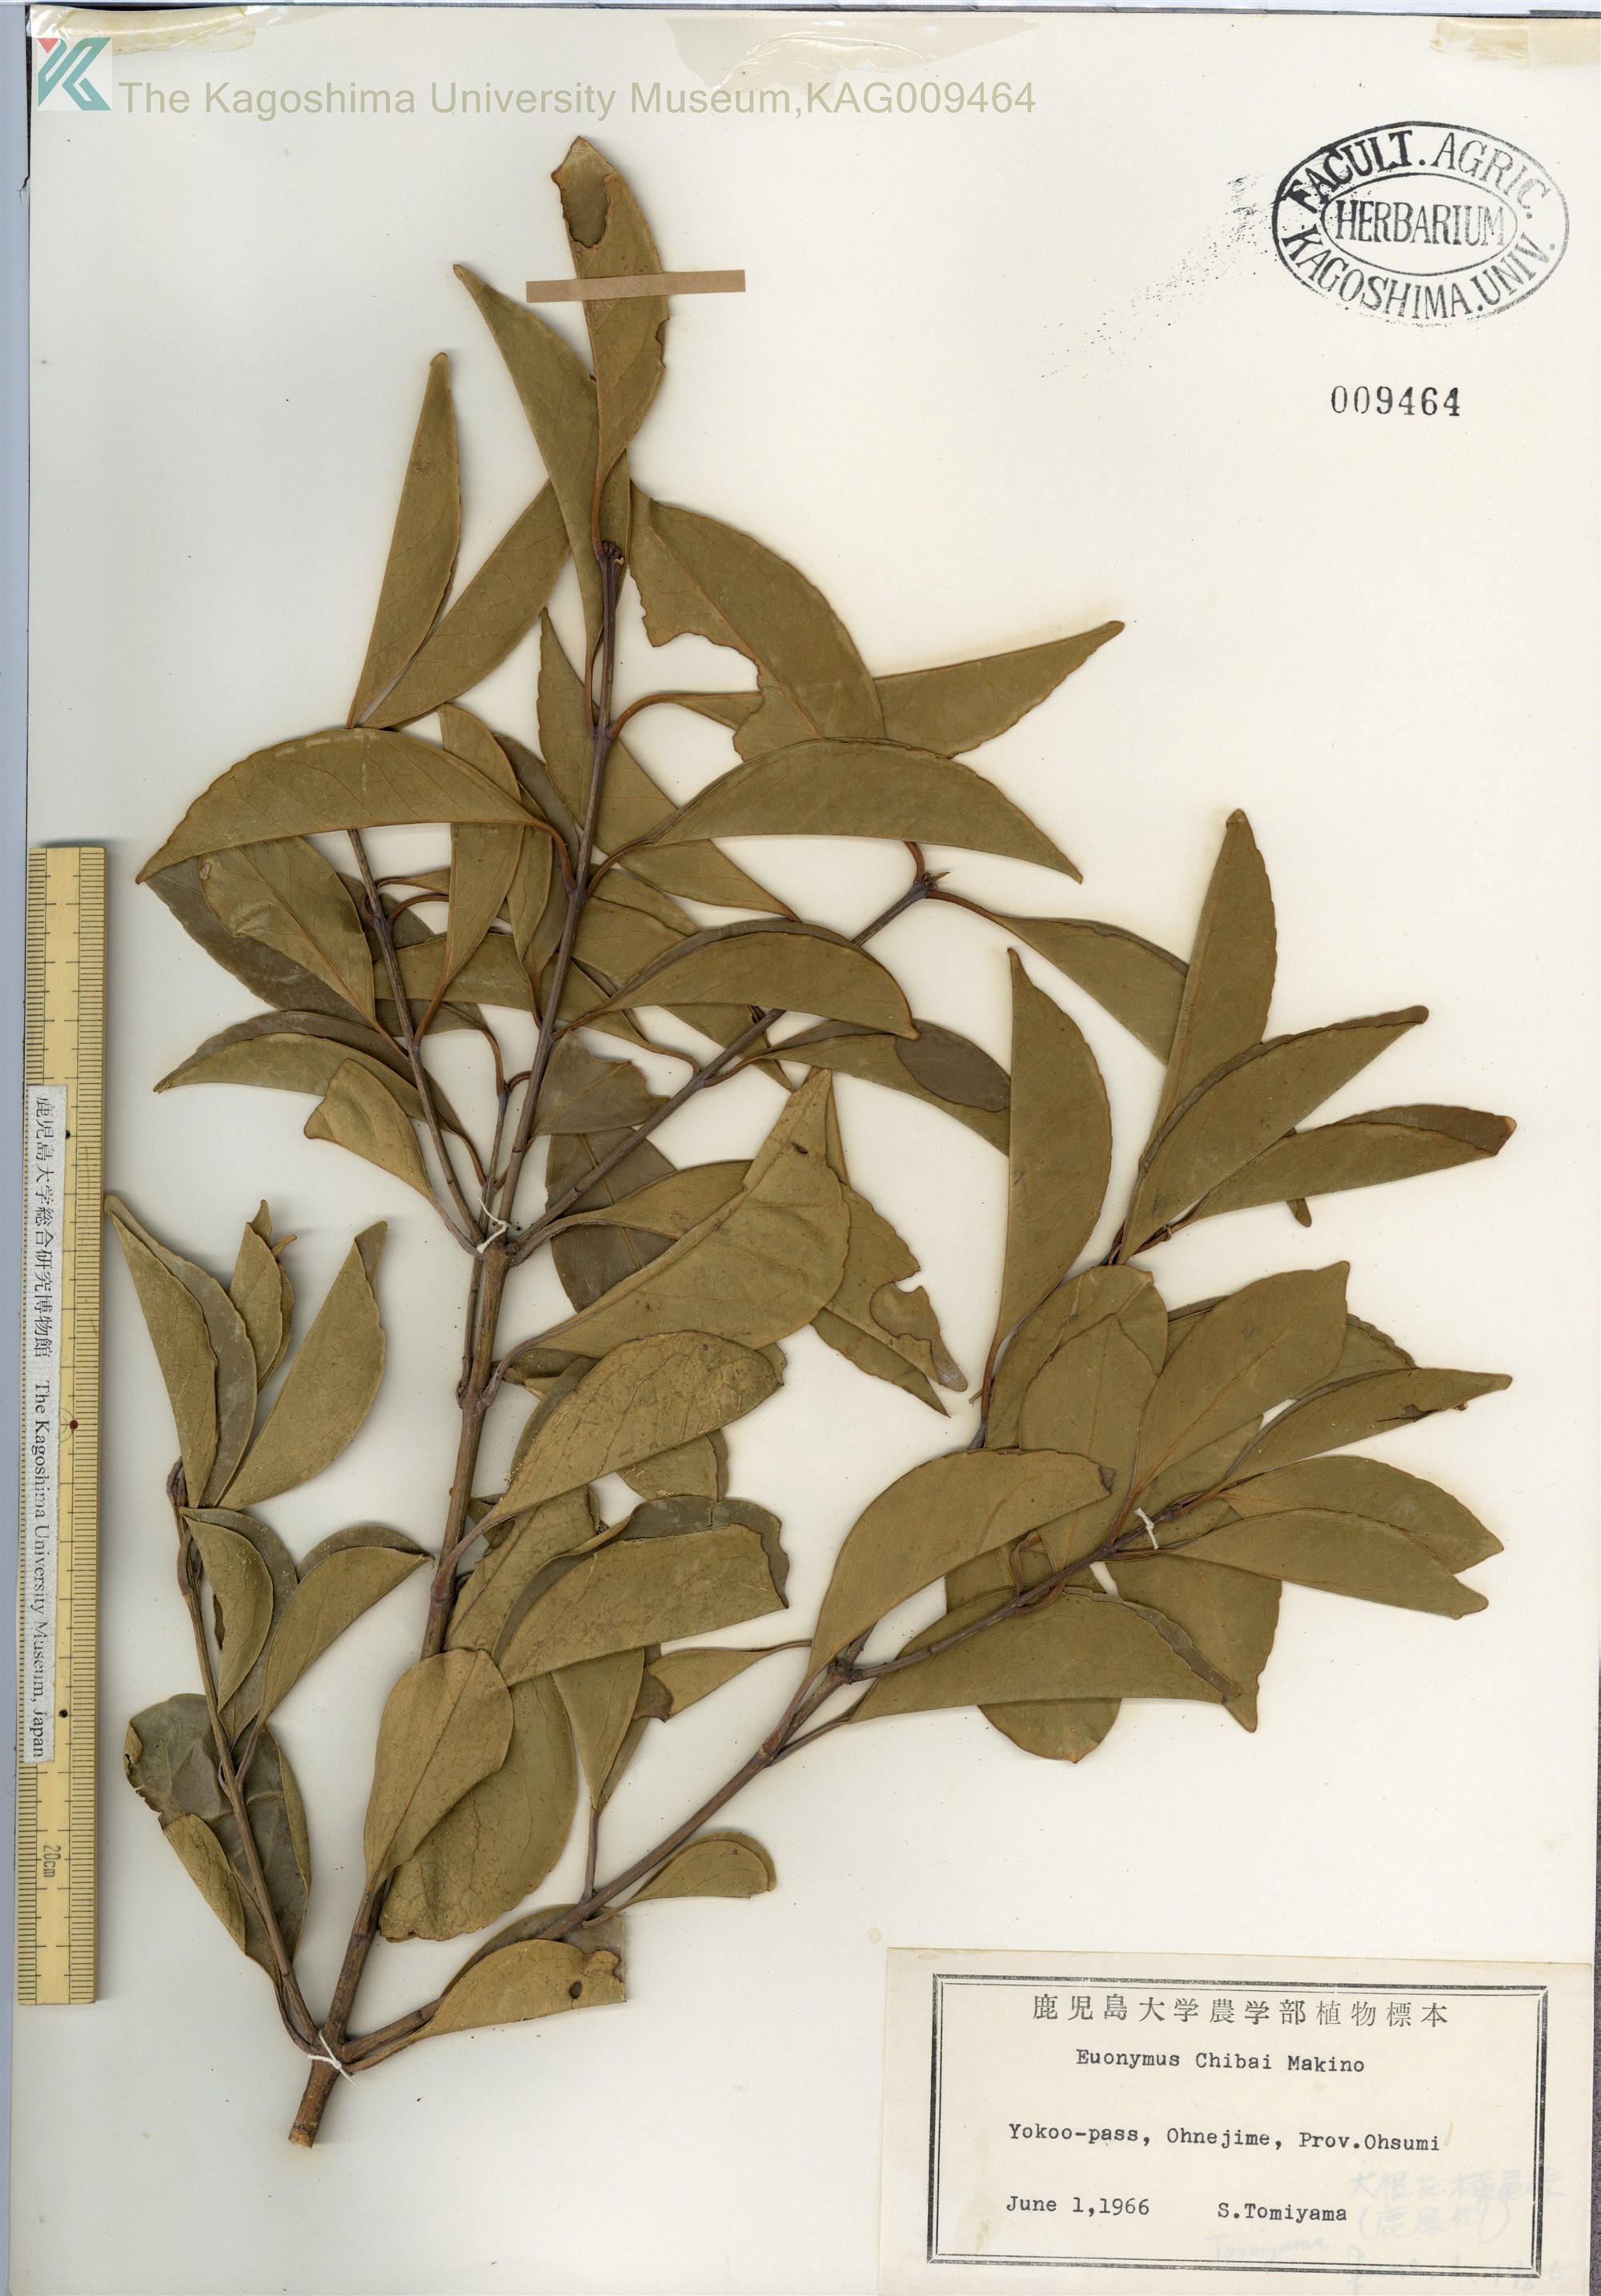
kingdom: Plantae
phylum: Tracheophyta
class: Magnoliopsida
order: Celastrales
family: Celastraceae
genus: Euonymus
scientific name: Euonymus chibae
